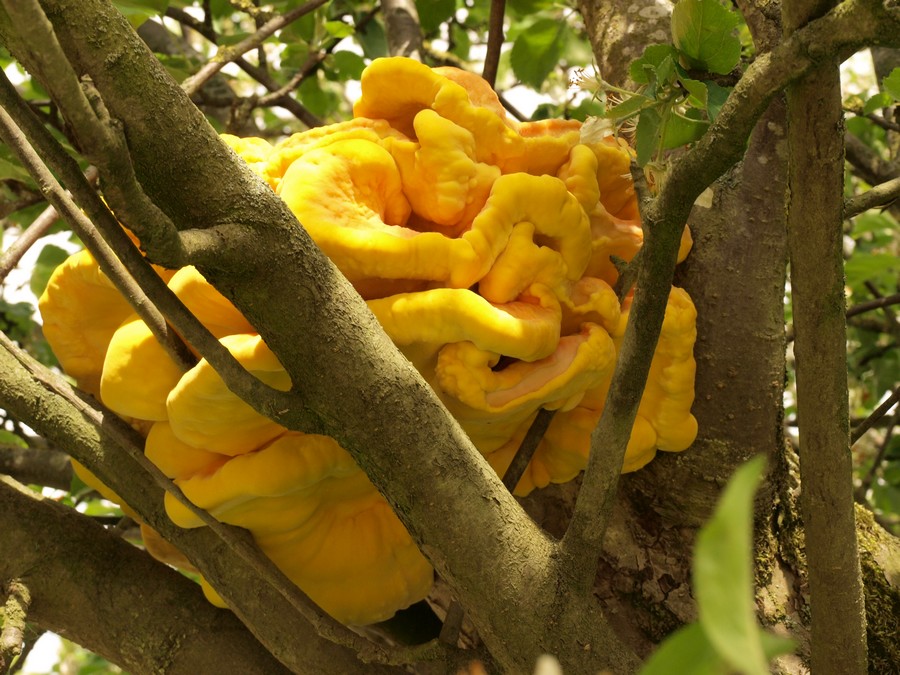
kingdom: Fungi
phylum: Basidiomycota
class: Agaricomycetes
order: Polyporales
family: Laetiporaceae
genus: Laetiporus
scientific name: Laetiporus sulphureus
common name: svovlporesvamp
